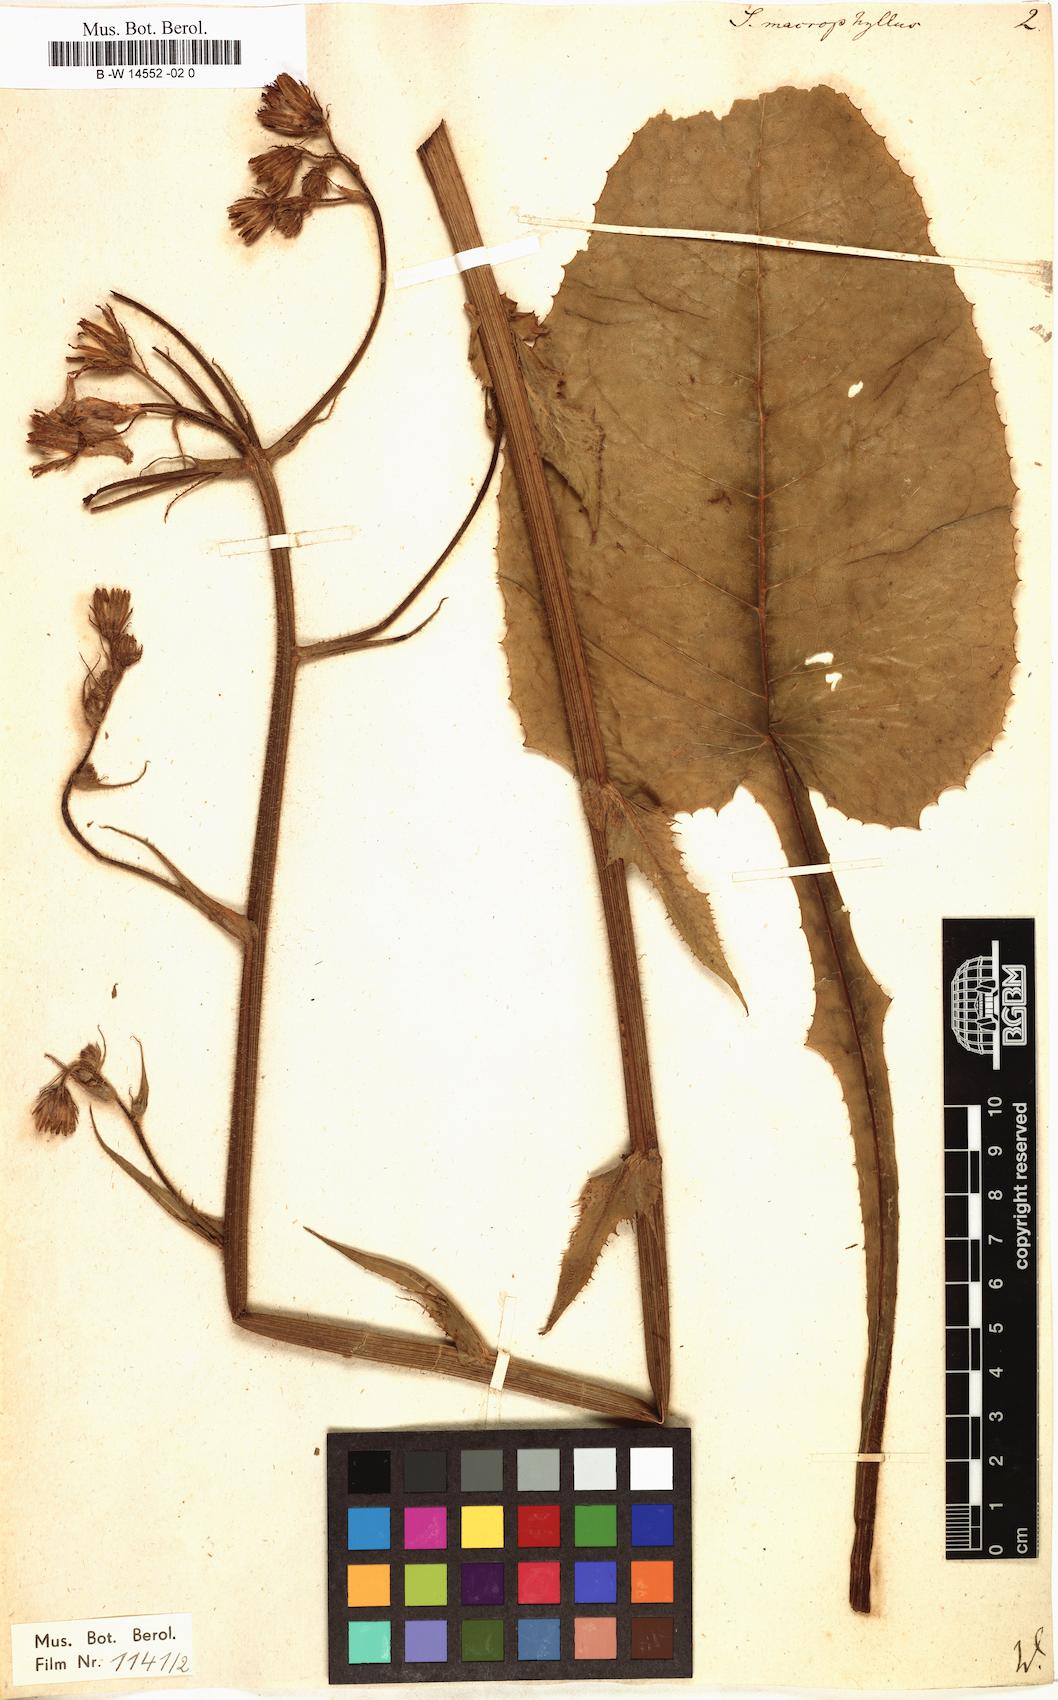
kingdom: Plantae
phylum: Tracheophyta
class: Magnoliopsida
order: Asterales
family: Asteraceae
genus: Lactuca
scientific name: Lactuca macrophylla
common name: Common blue-sow-thistle
